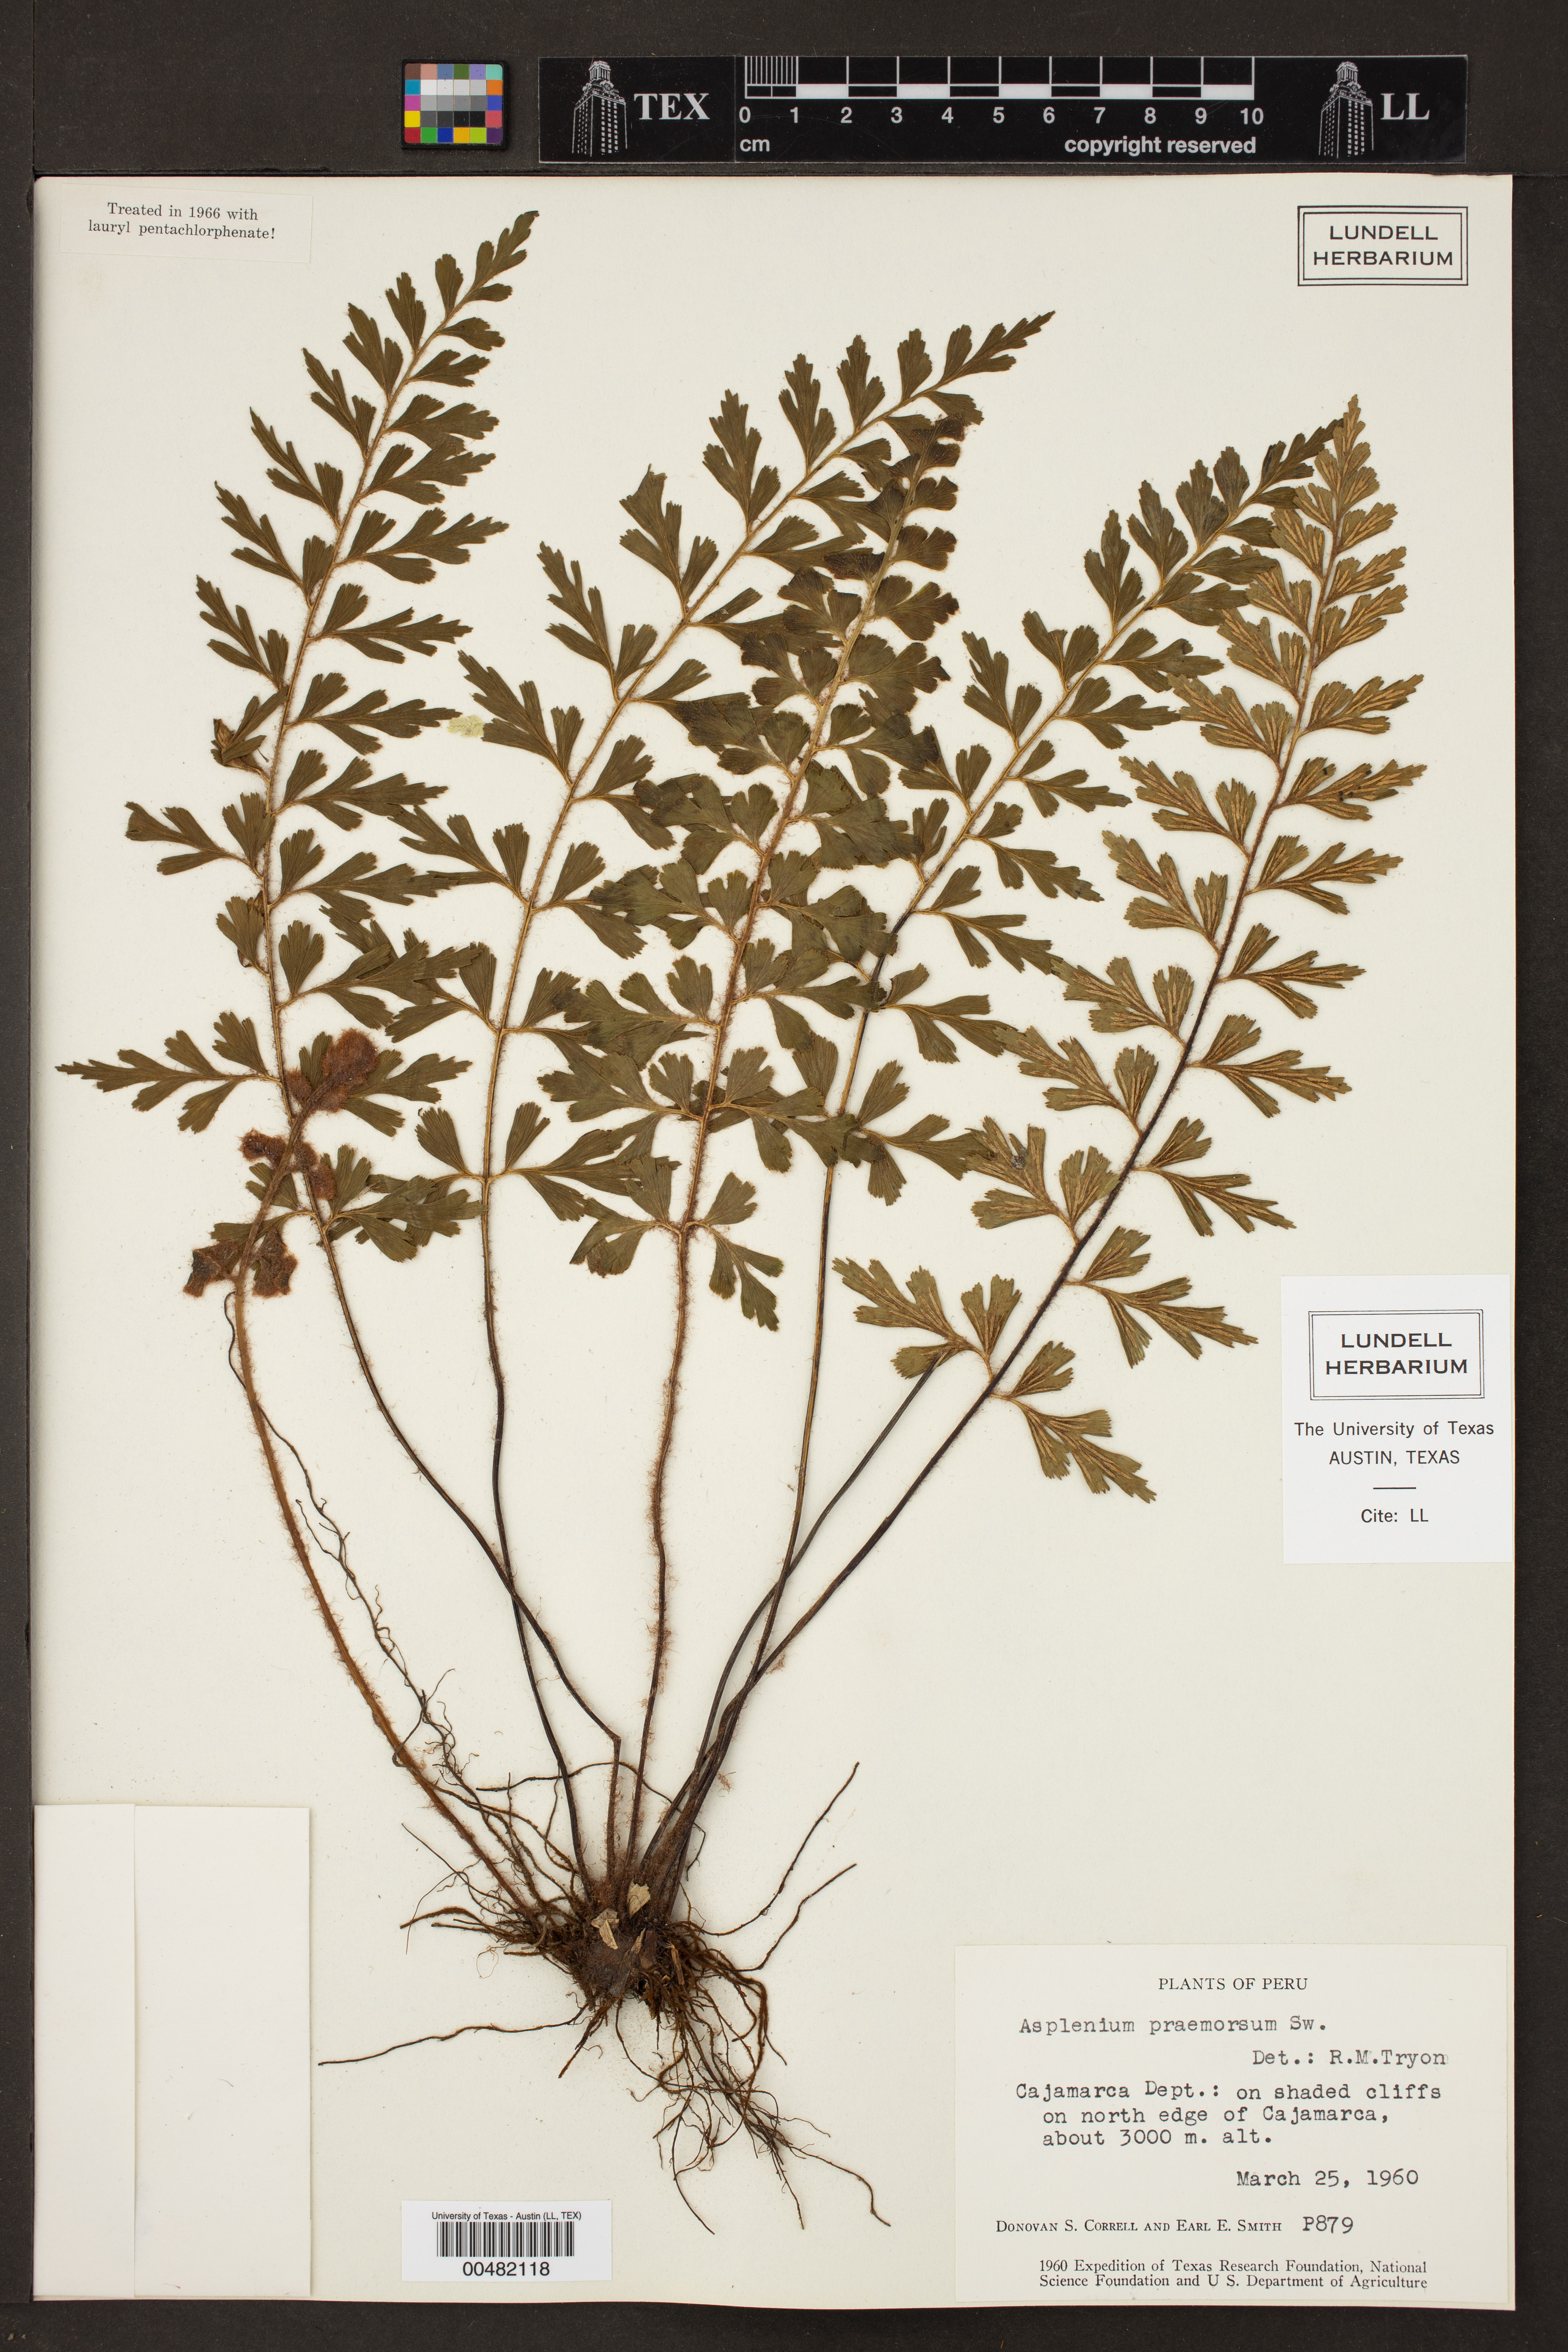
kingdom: Plantae
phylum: Tracheophyta
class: Polypodiopsida
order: Polypodiales
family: Aspleniaceae
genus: Asplenium
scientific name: Asplenium praemorsum
